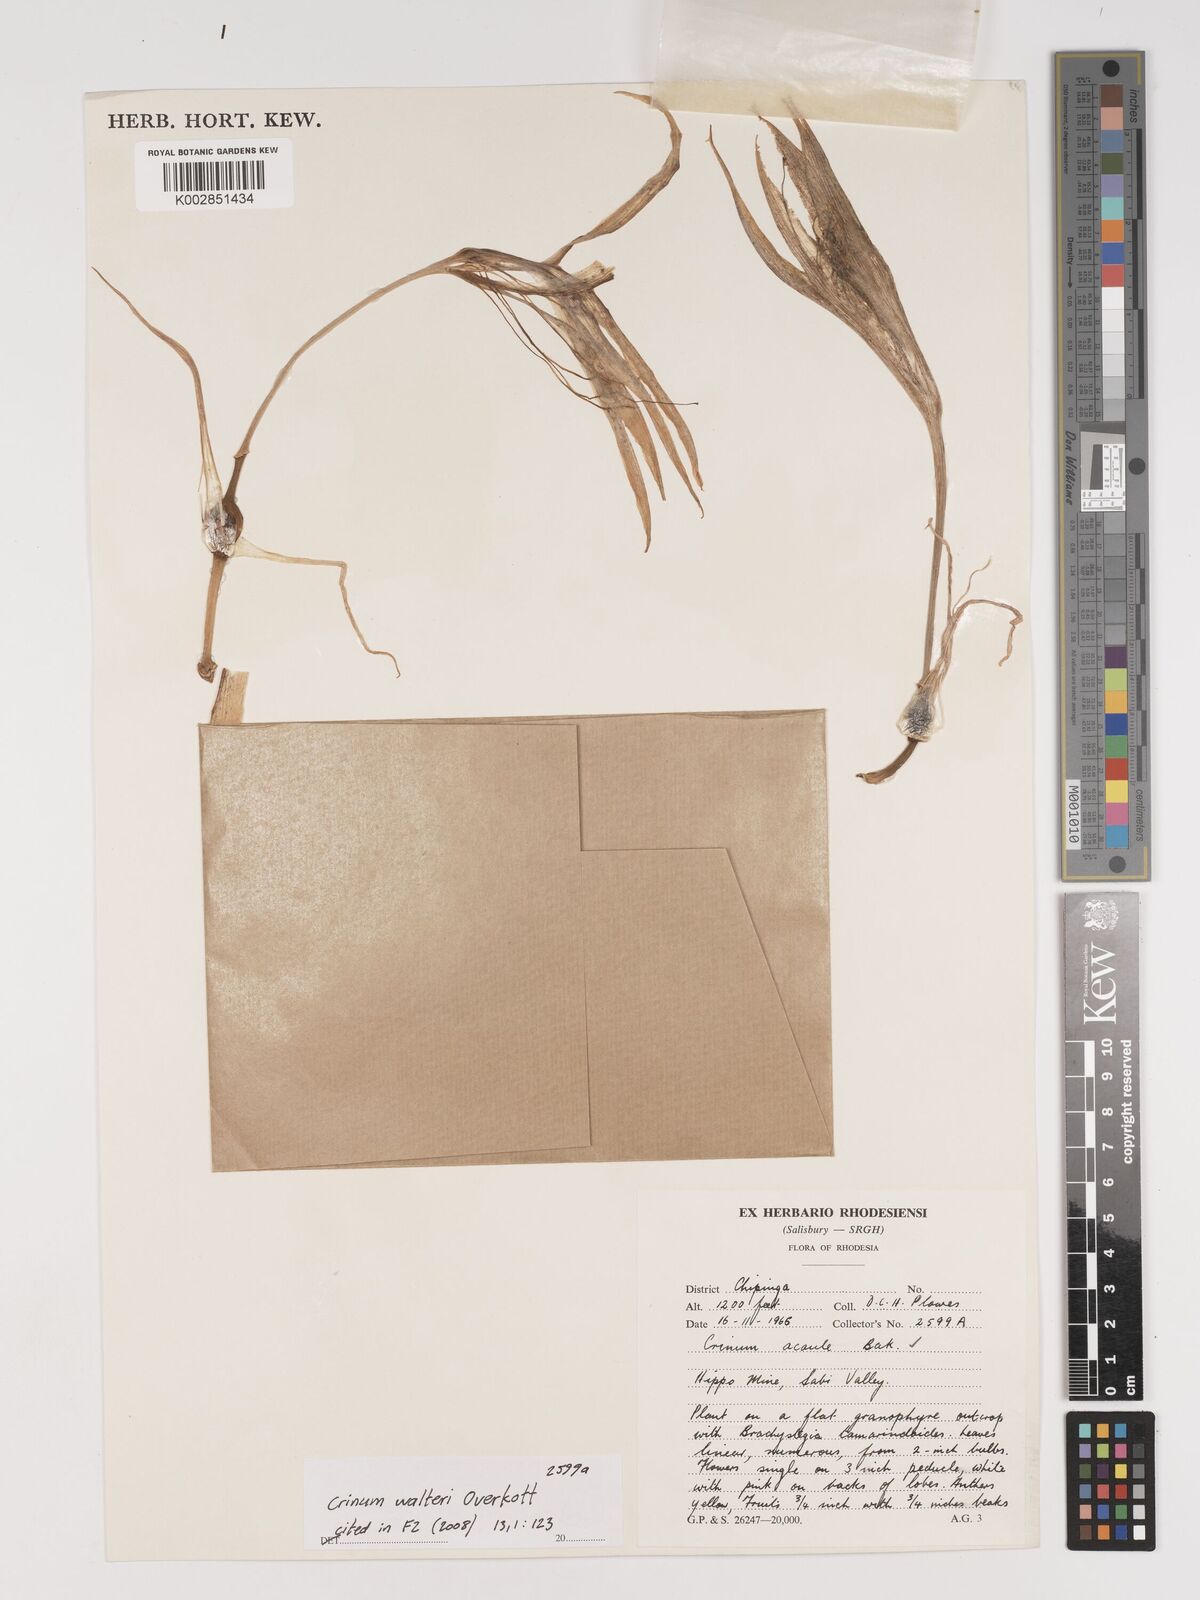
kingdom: Plantae
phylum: Tracheophyta
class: Liliopsida
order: Asparagales
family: Amaryllidaceae
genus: Crinum
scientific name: Crinum walteri
